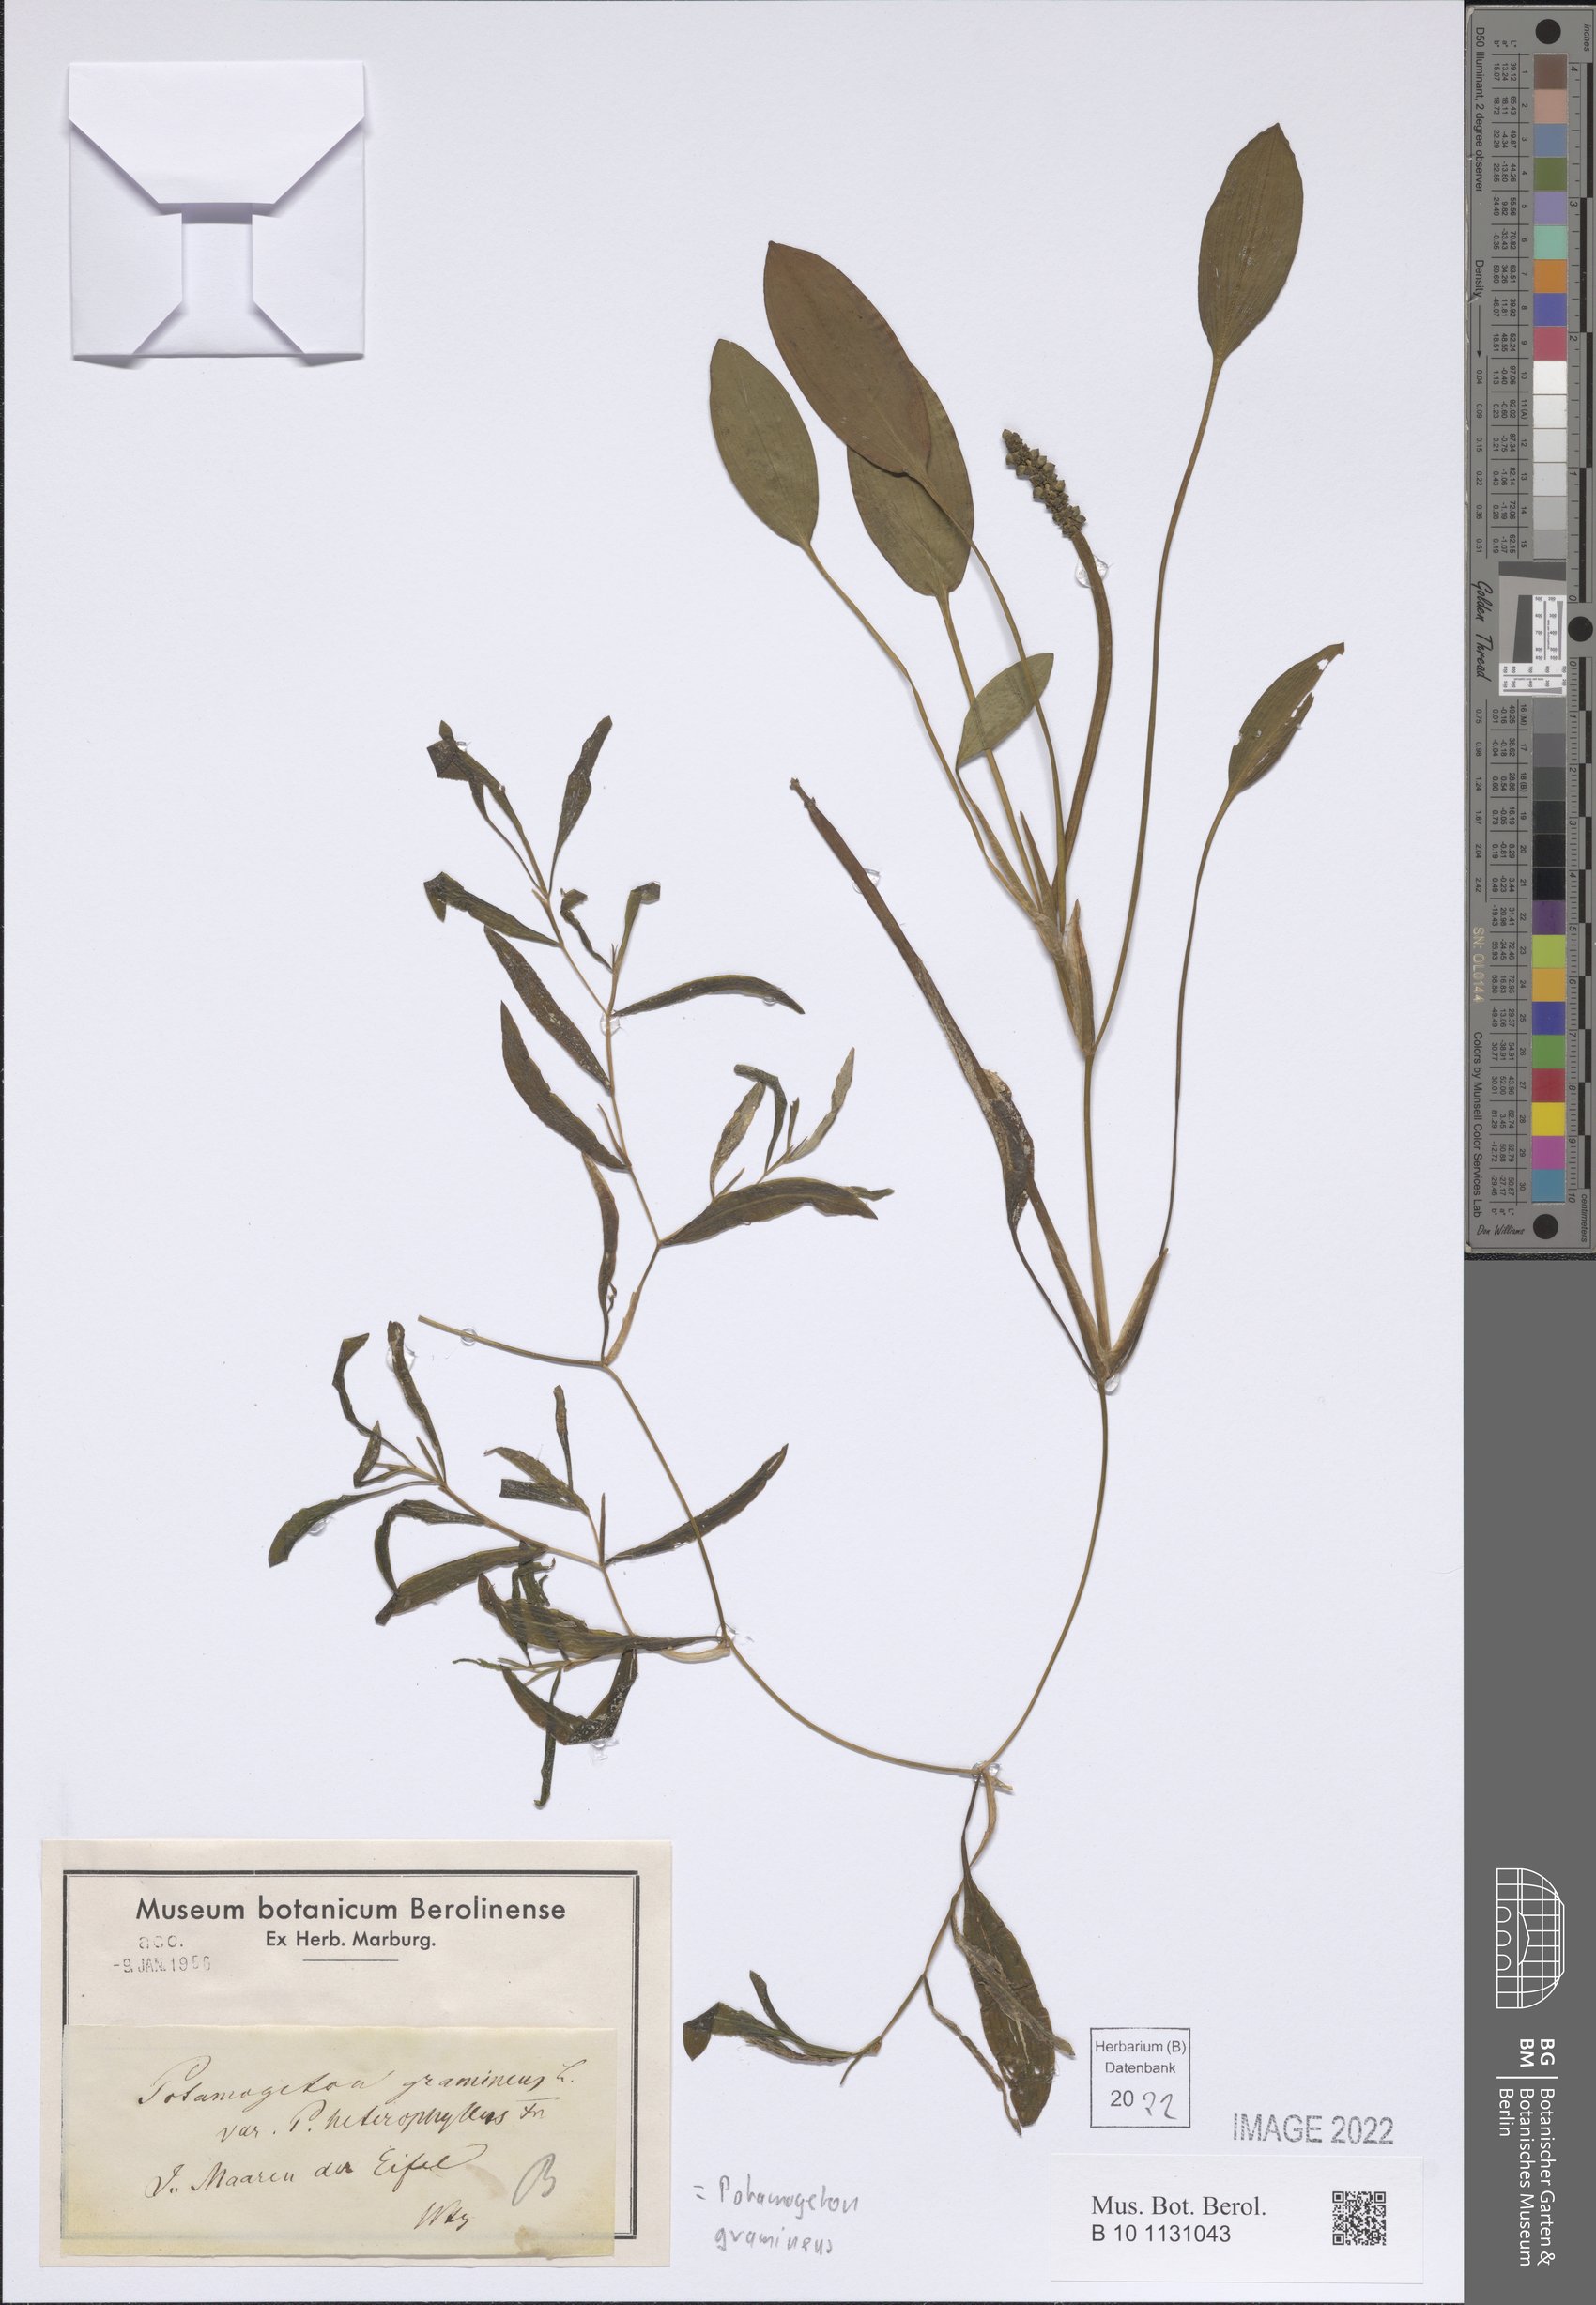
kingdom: Plantae
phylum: Tracheophyta
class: Liliopsida
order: Alismatales
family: Potamogetonaceae
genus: Potamogeton
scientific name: Potamogeton gramineus
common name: Various-leaved pondweed
